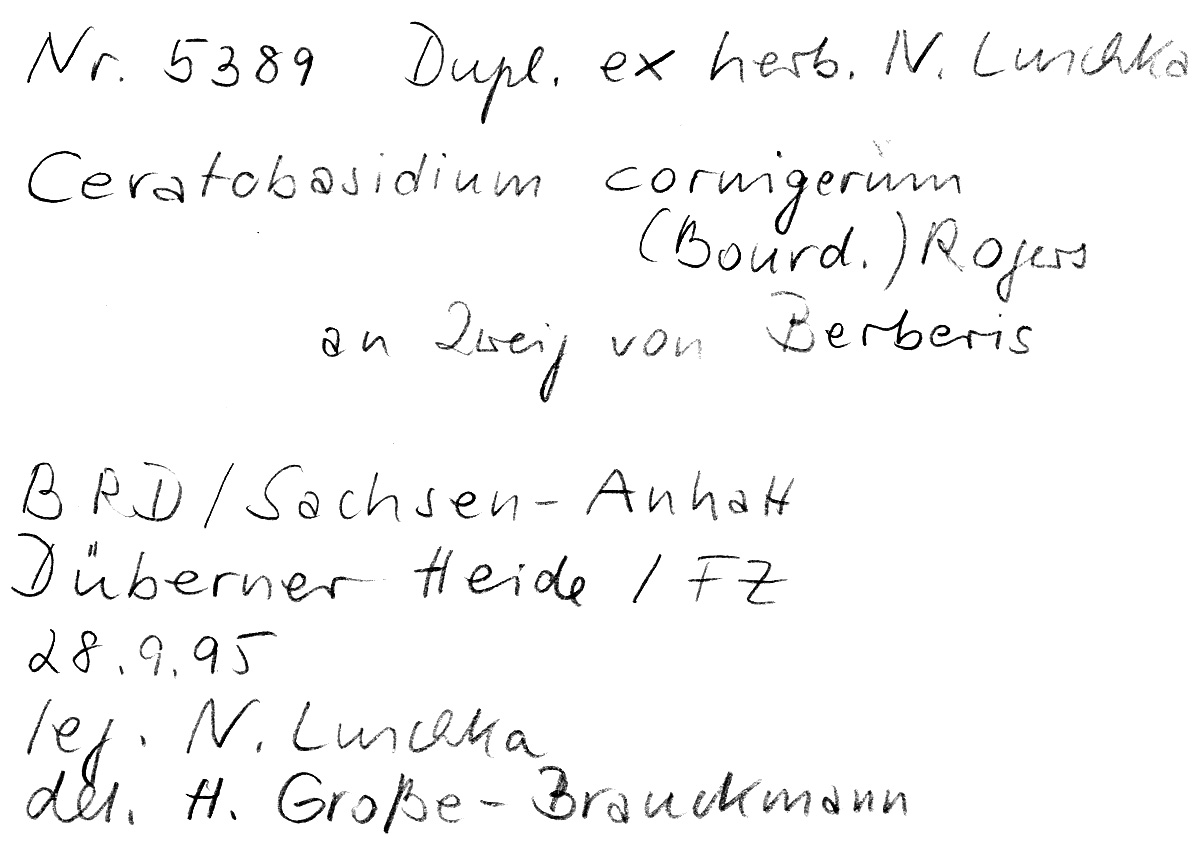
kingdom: Plantae
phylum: Tracheophyta
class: Magnoliopsida
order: Ranunculales
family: Berberidaceae
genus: Berberis
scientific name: Berberis
